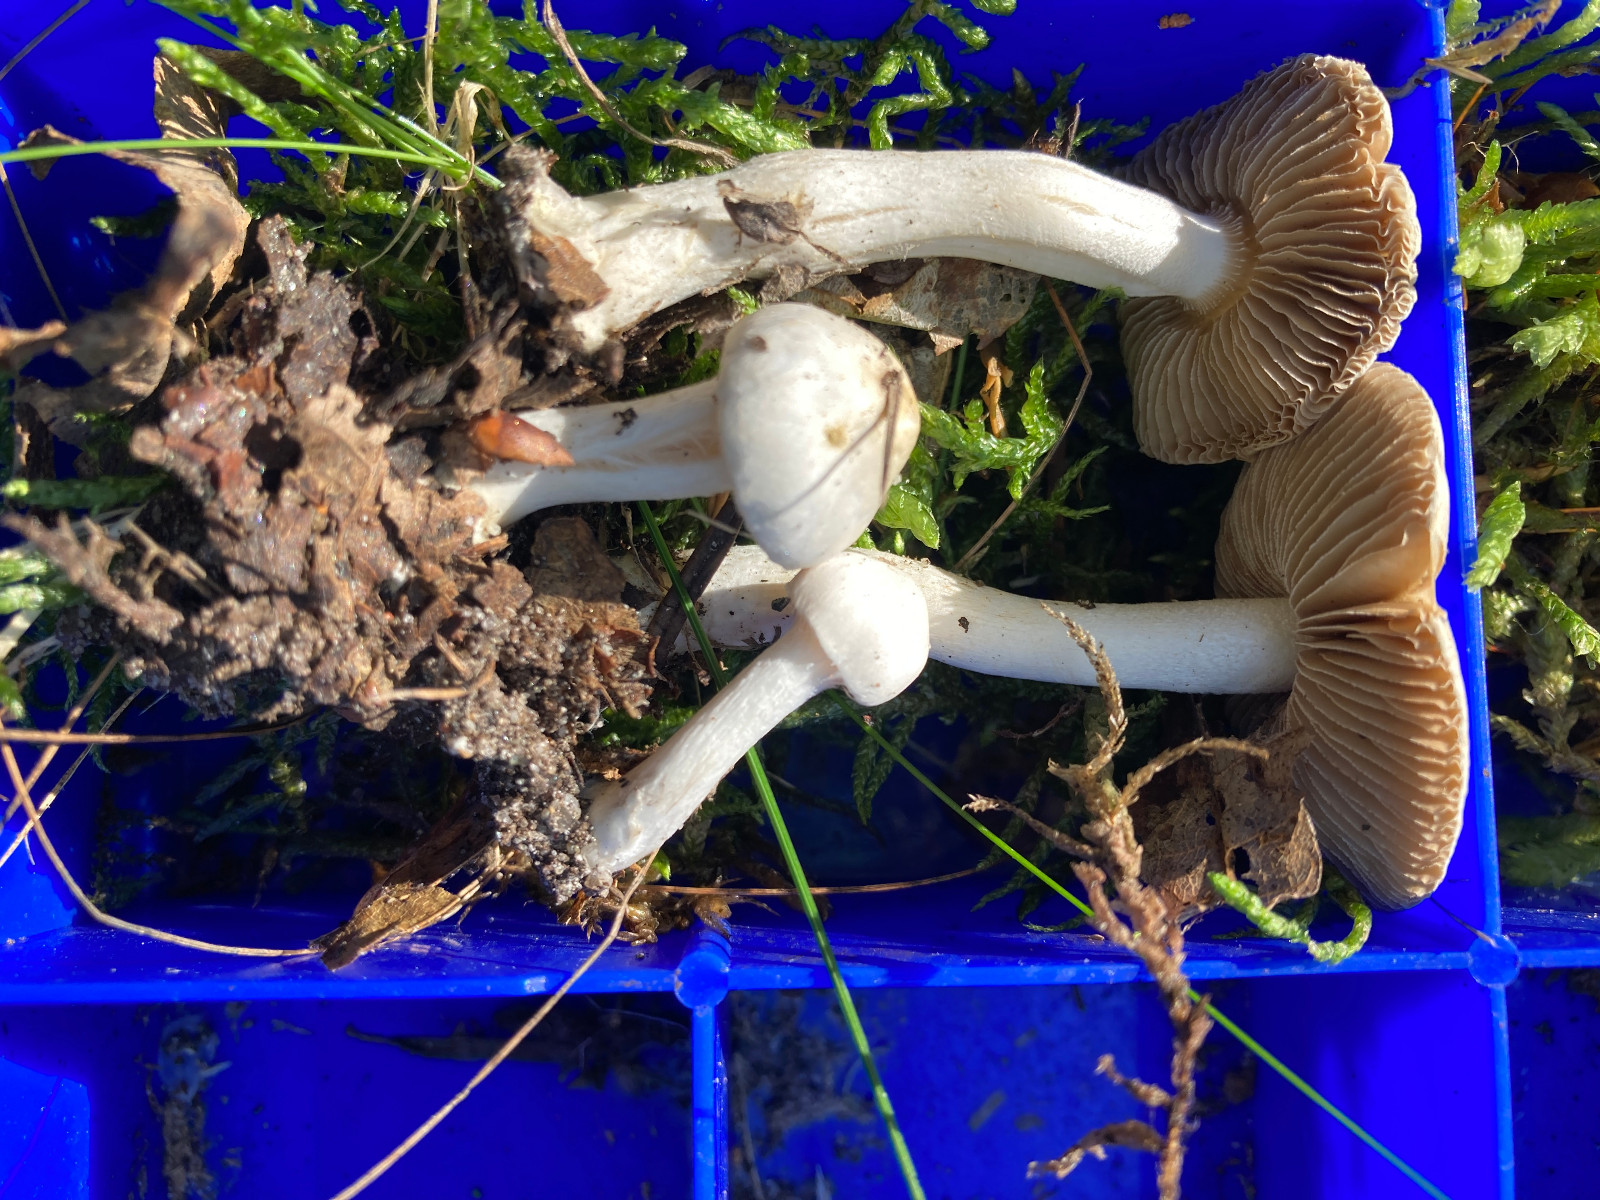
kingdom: Fungi
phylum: Basidiomycota
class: Agaricomycetes
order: Agaricales
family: Inocybaceae
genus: Inocybe
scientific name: Inocybe
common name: almindelig trævlhat
